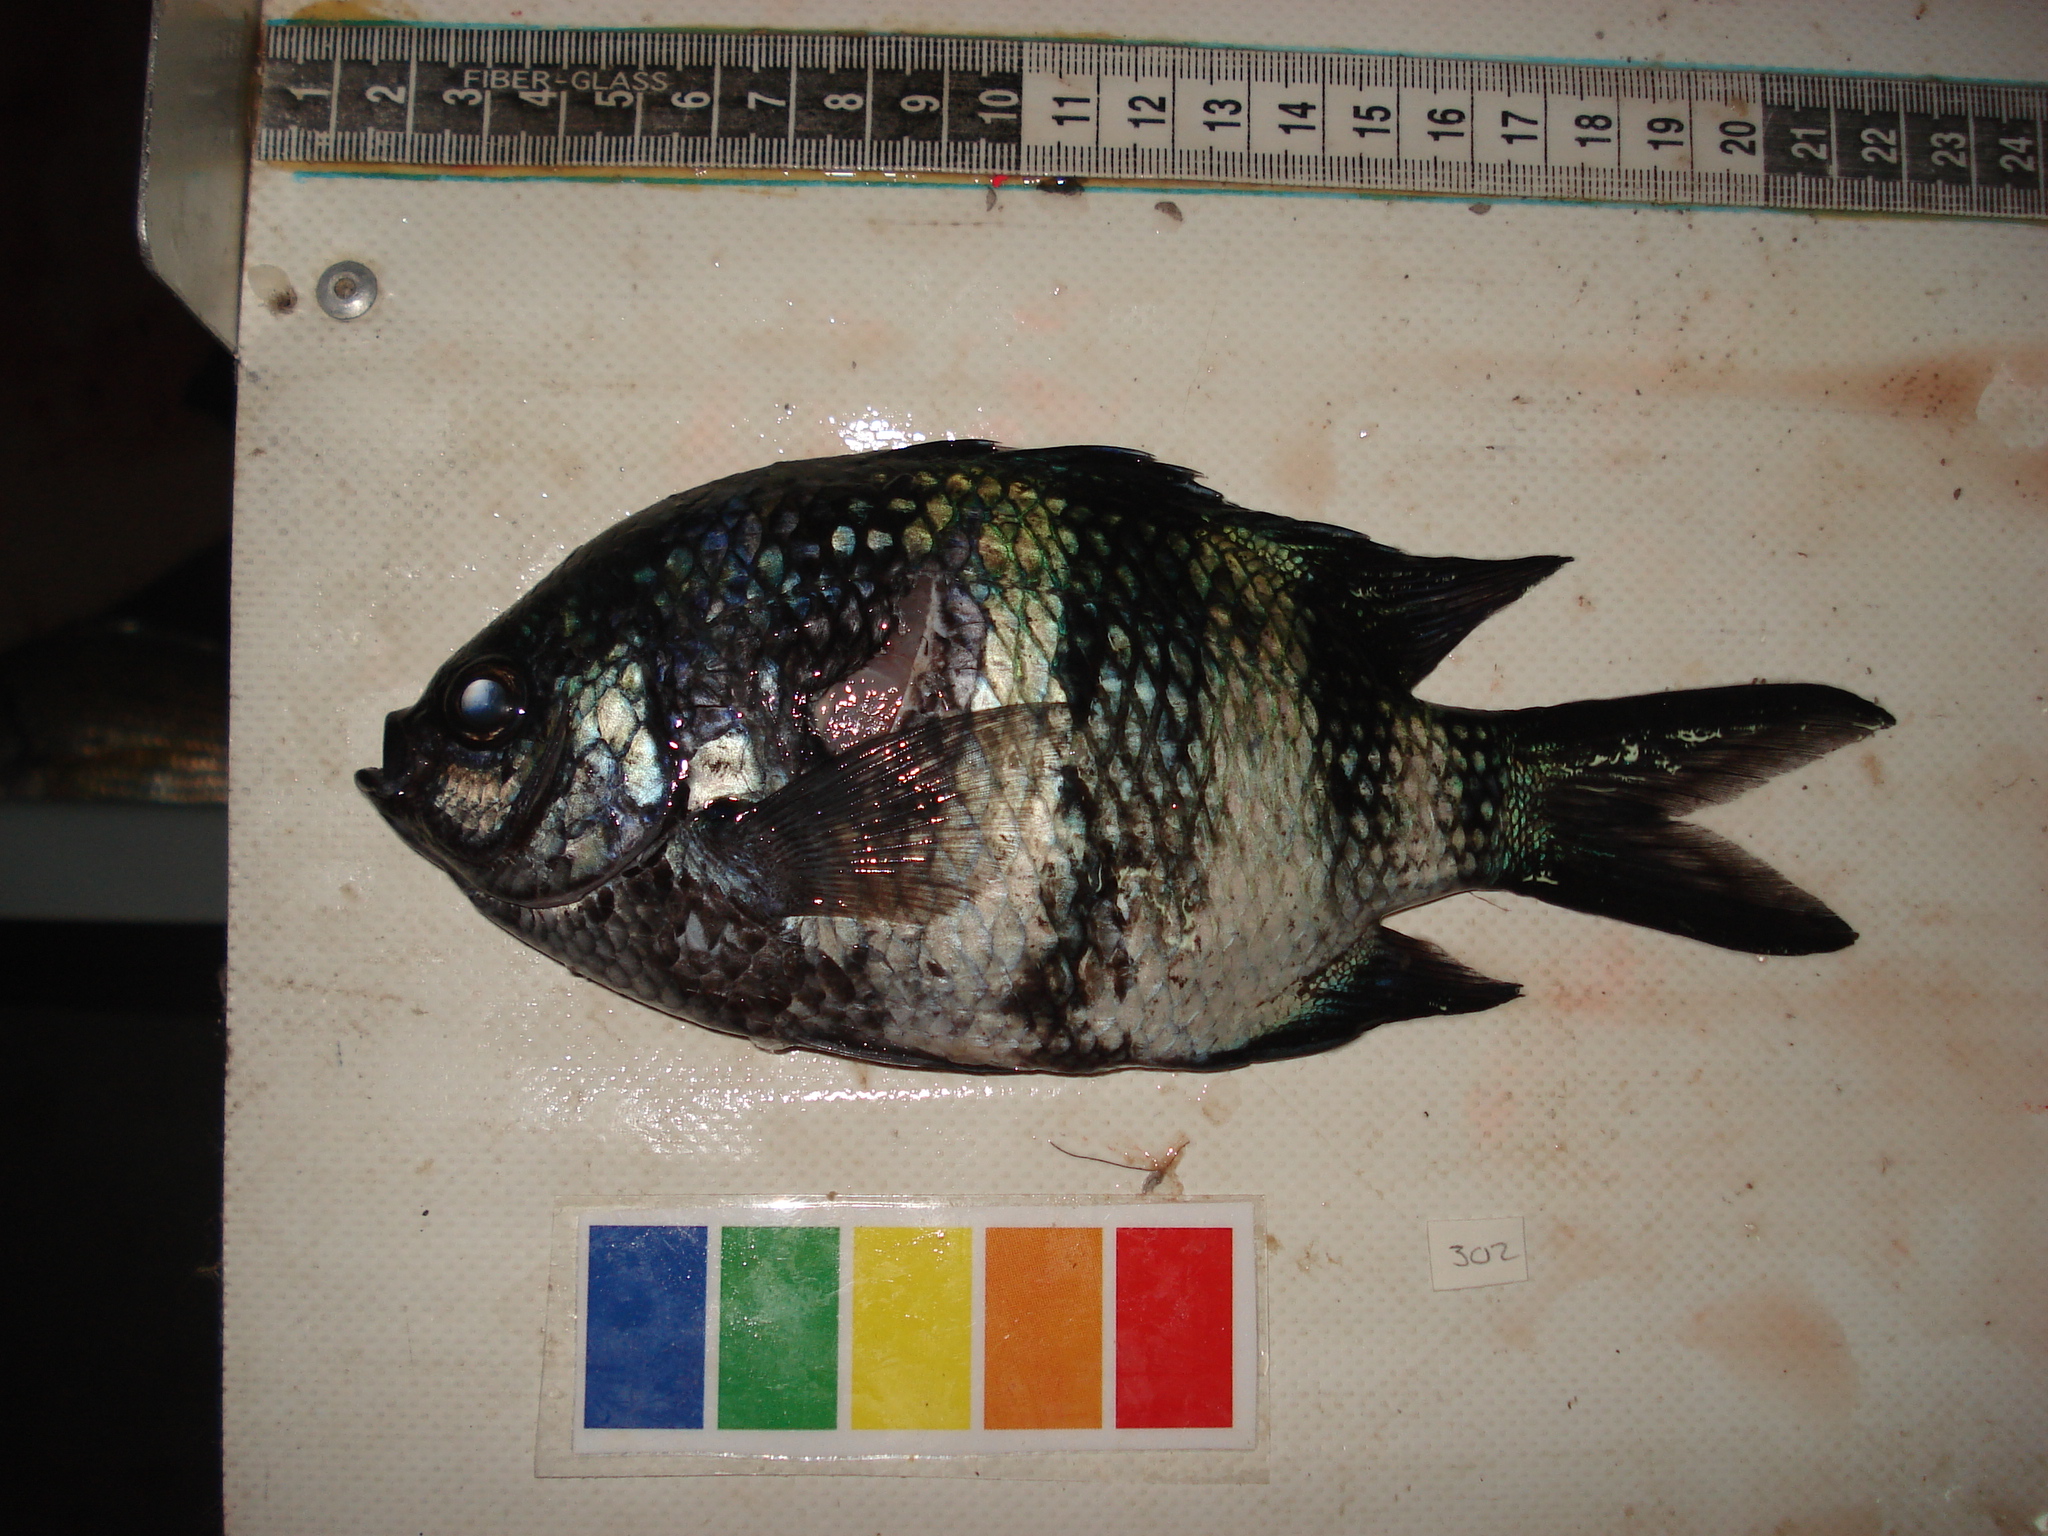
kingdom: Animalia
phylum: Chordata
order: Perciformes
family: Pomacentridae
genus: Abudefduf
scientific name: Abudefduf natalensis
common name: Natal sergeant
